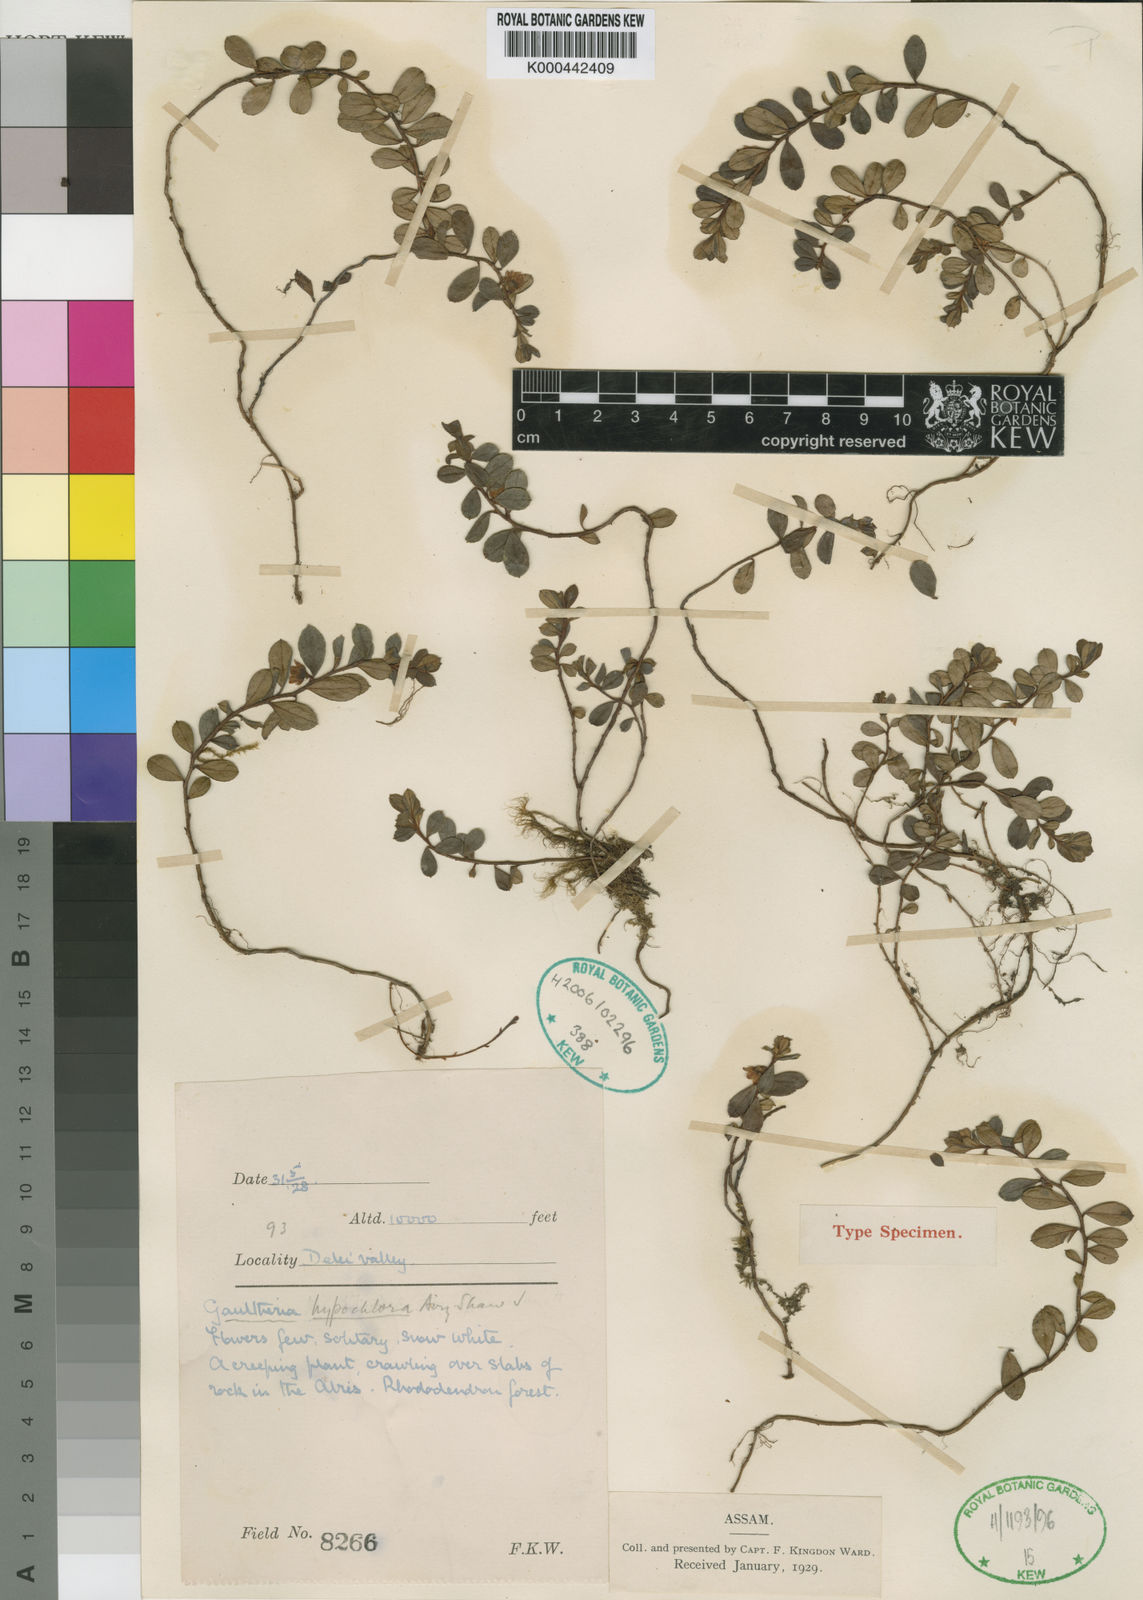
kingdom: Plantae
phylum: Tracheophyta
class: Magnoliopsida
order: Ericales
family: Ericaceae
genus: Gaultheria
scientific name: Gaultheria hypochlora
